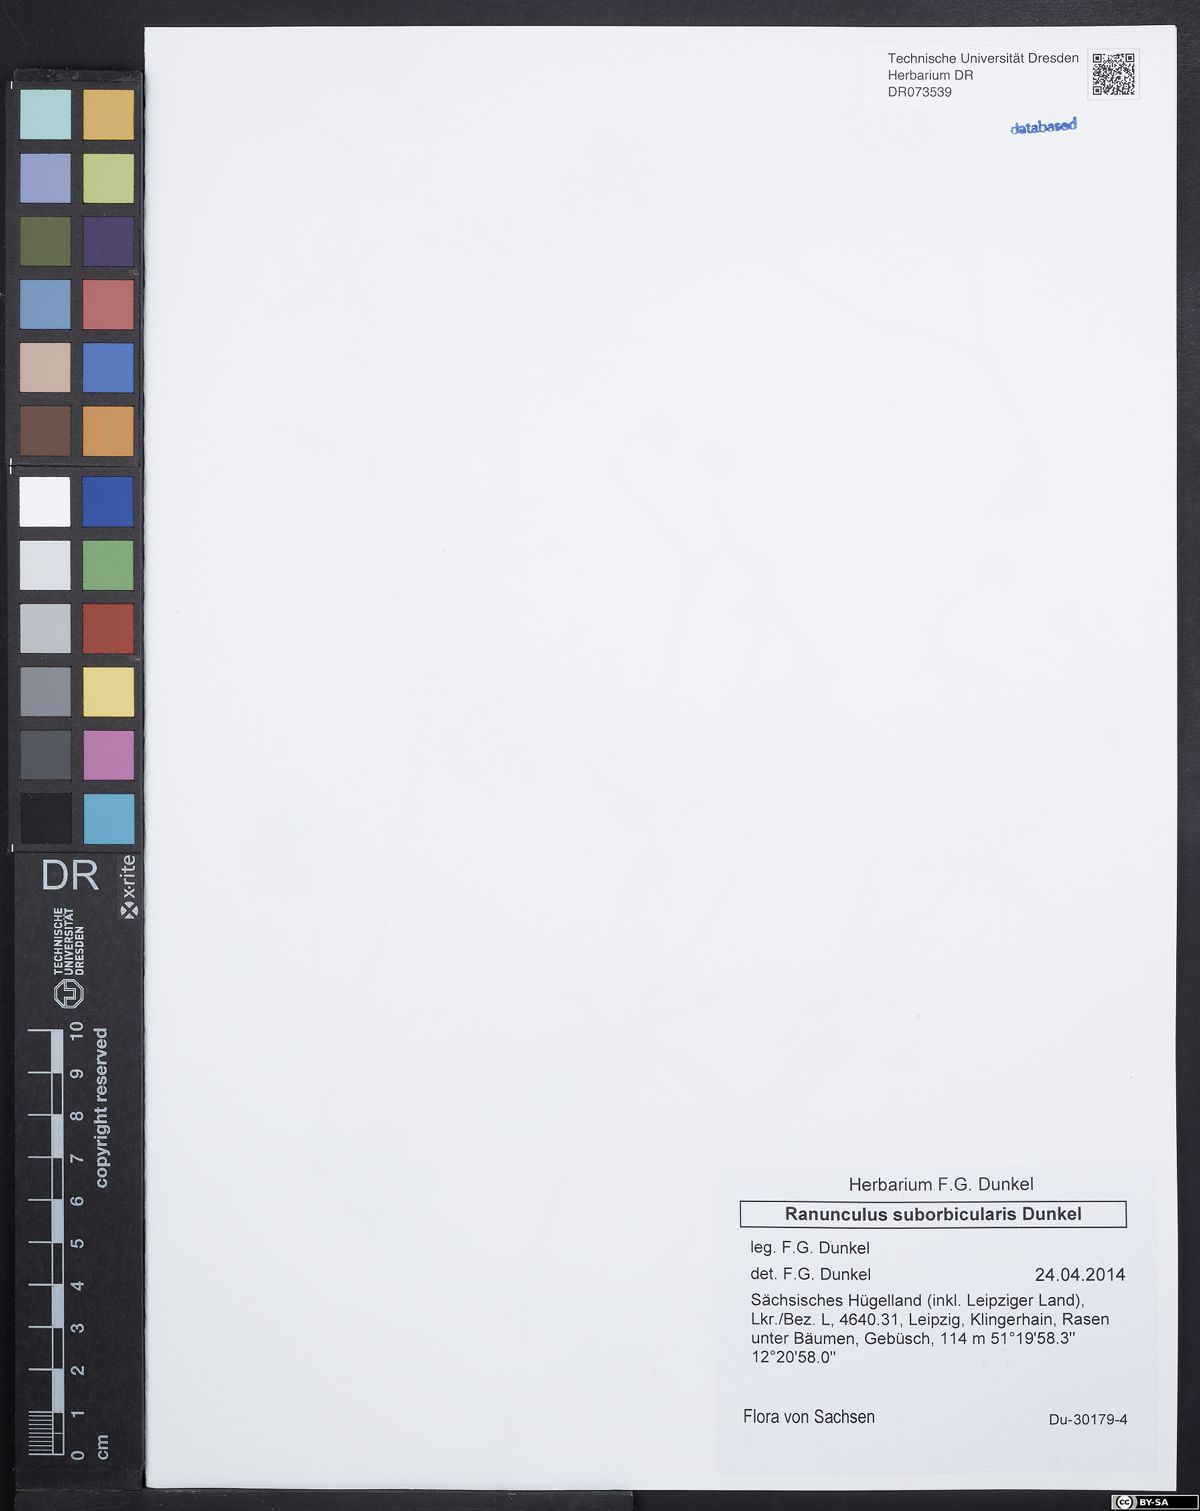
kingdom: Plantae
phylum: Tracheophyta
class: Magnoliopsida
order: Ranunculales
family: Ranunculaceae
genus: Ranunculus
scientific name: Ranunculus suborbicularis
